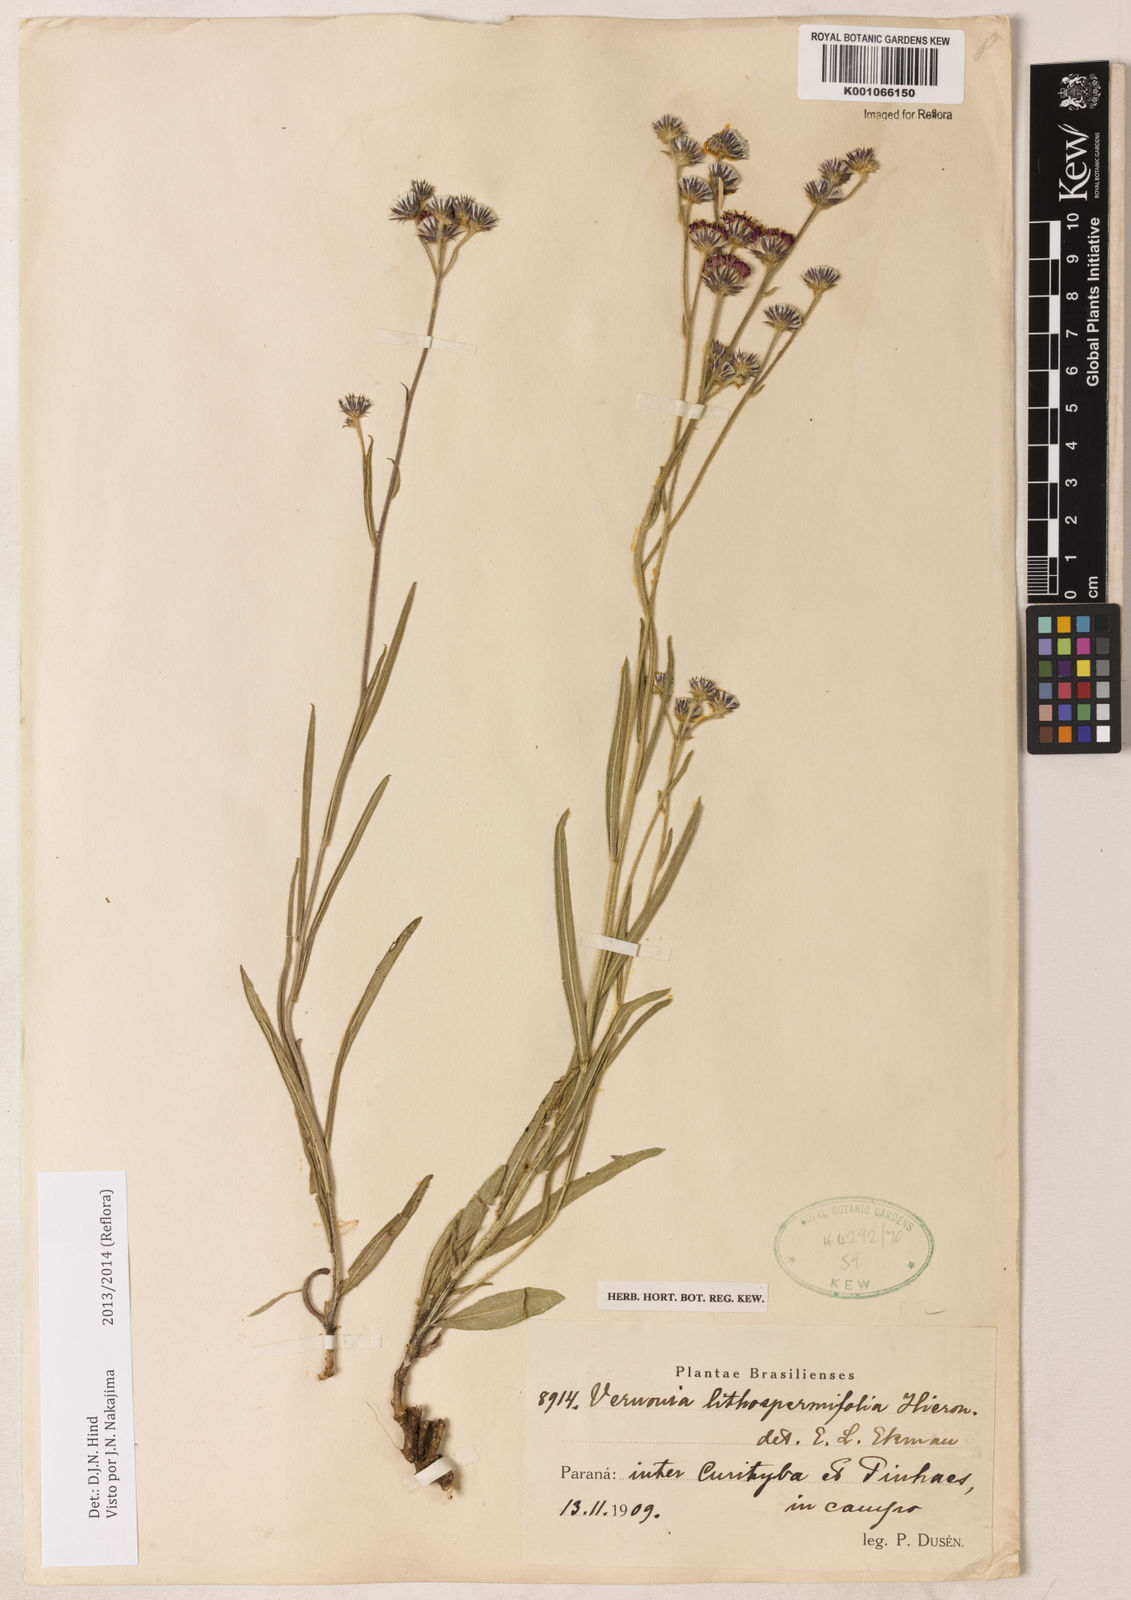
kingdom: Plantae
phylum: Tracheophyta
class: Magnoliopsida
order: Asterales
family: Asteraceae
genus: Chrysolaena
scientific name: Chrysolaena lithospermifolia
